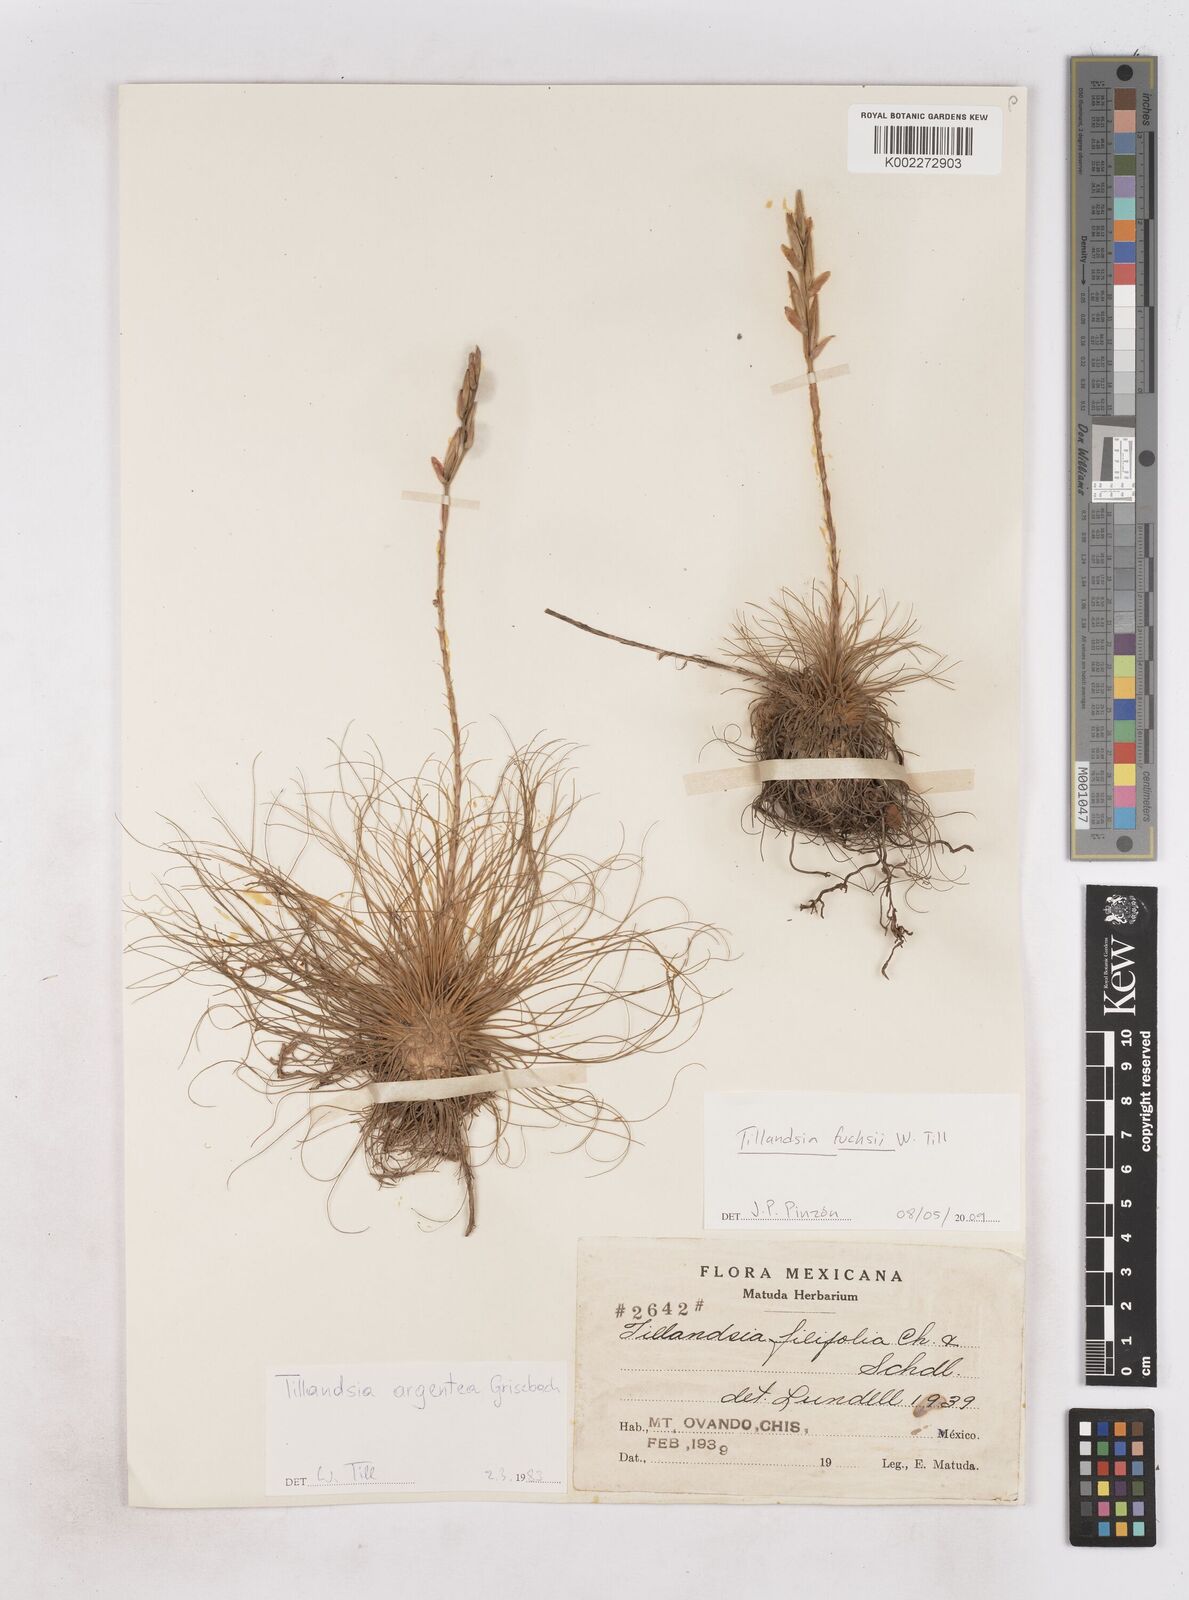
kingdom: Plantae
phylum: Tracheophyta
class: Liliopsida
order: Poales
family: Bromeliaceae
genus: Tillandsia
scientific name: Tillandsia fuchsii
